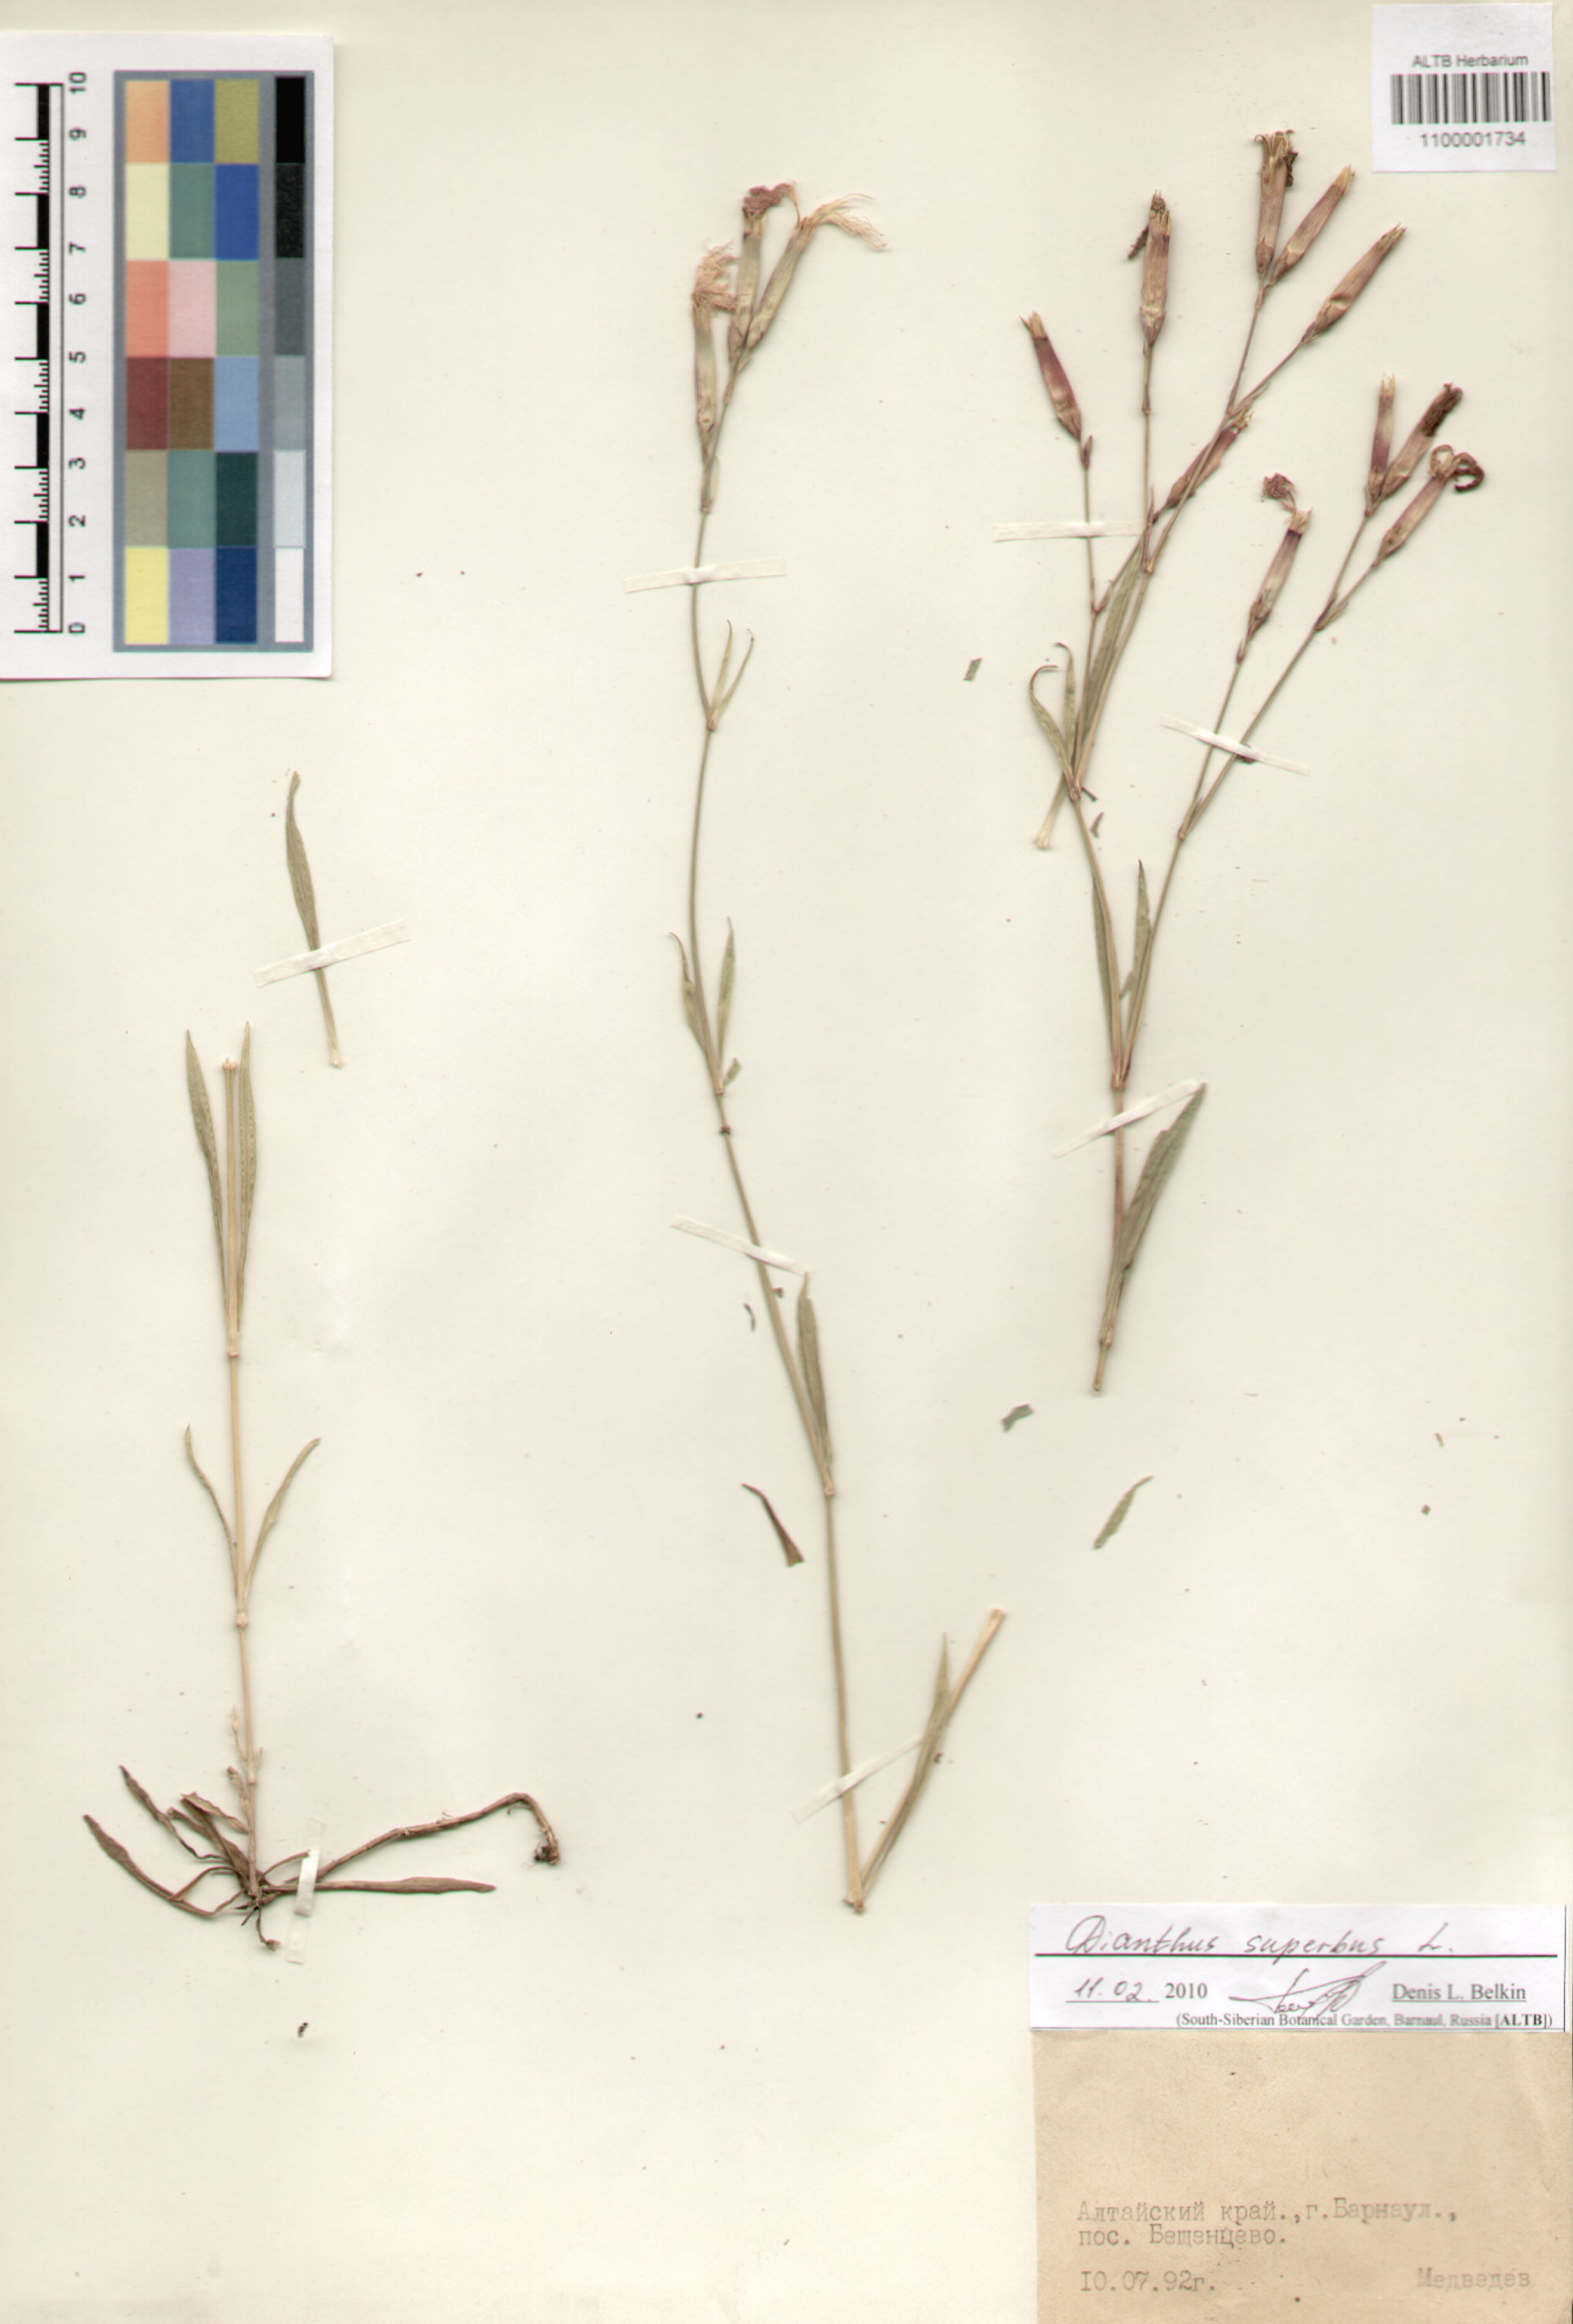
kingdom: Plantae
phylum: Tracheophyta
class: Magnoliopsida
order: Caryophyllales
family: Caryophyllaceae
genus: Dianthus
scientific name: Dianthus superbus
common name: Fringed pink
